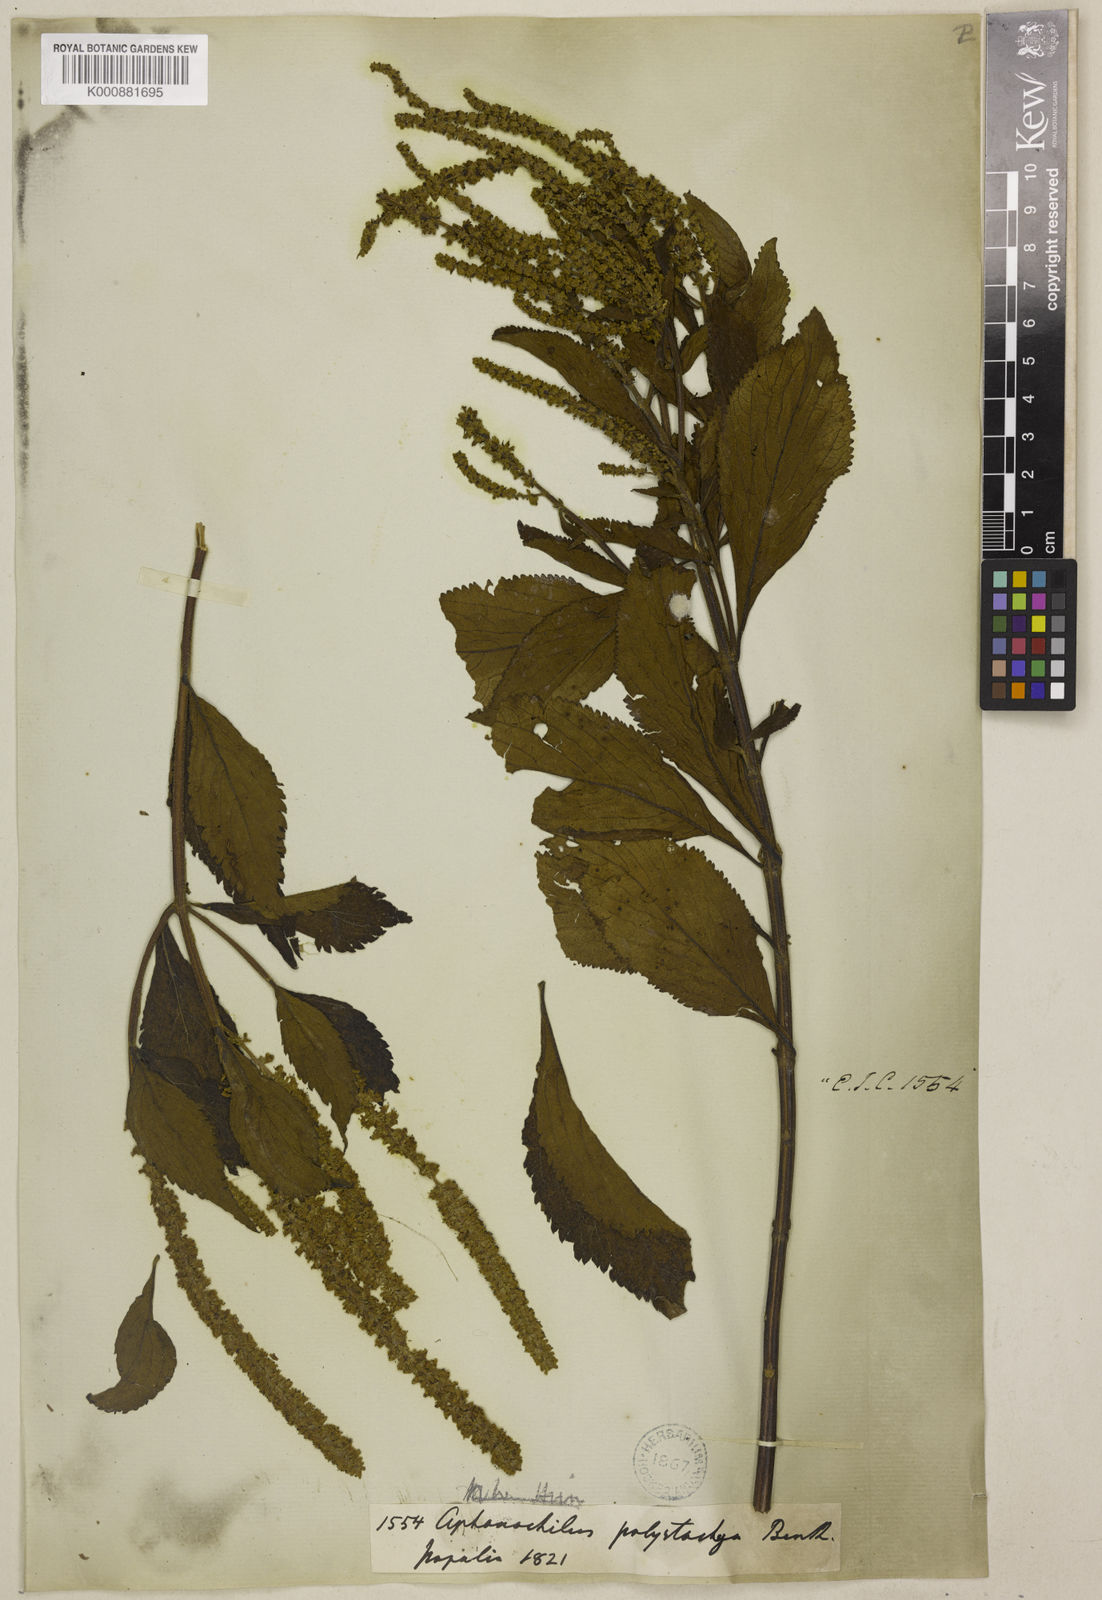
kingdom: Plantae
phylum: Tracheophyta
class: Magnoliopsida
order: Lamiales
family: Lamiaceae
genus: Elsholtzia
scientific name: Elsholtzia fruticosa
